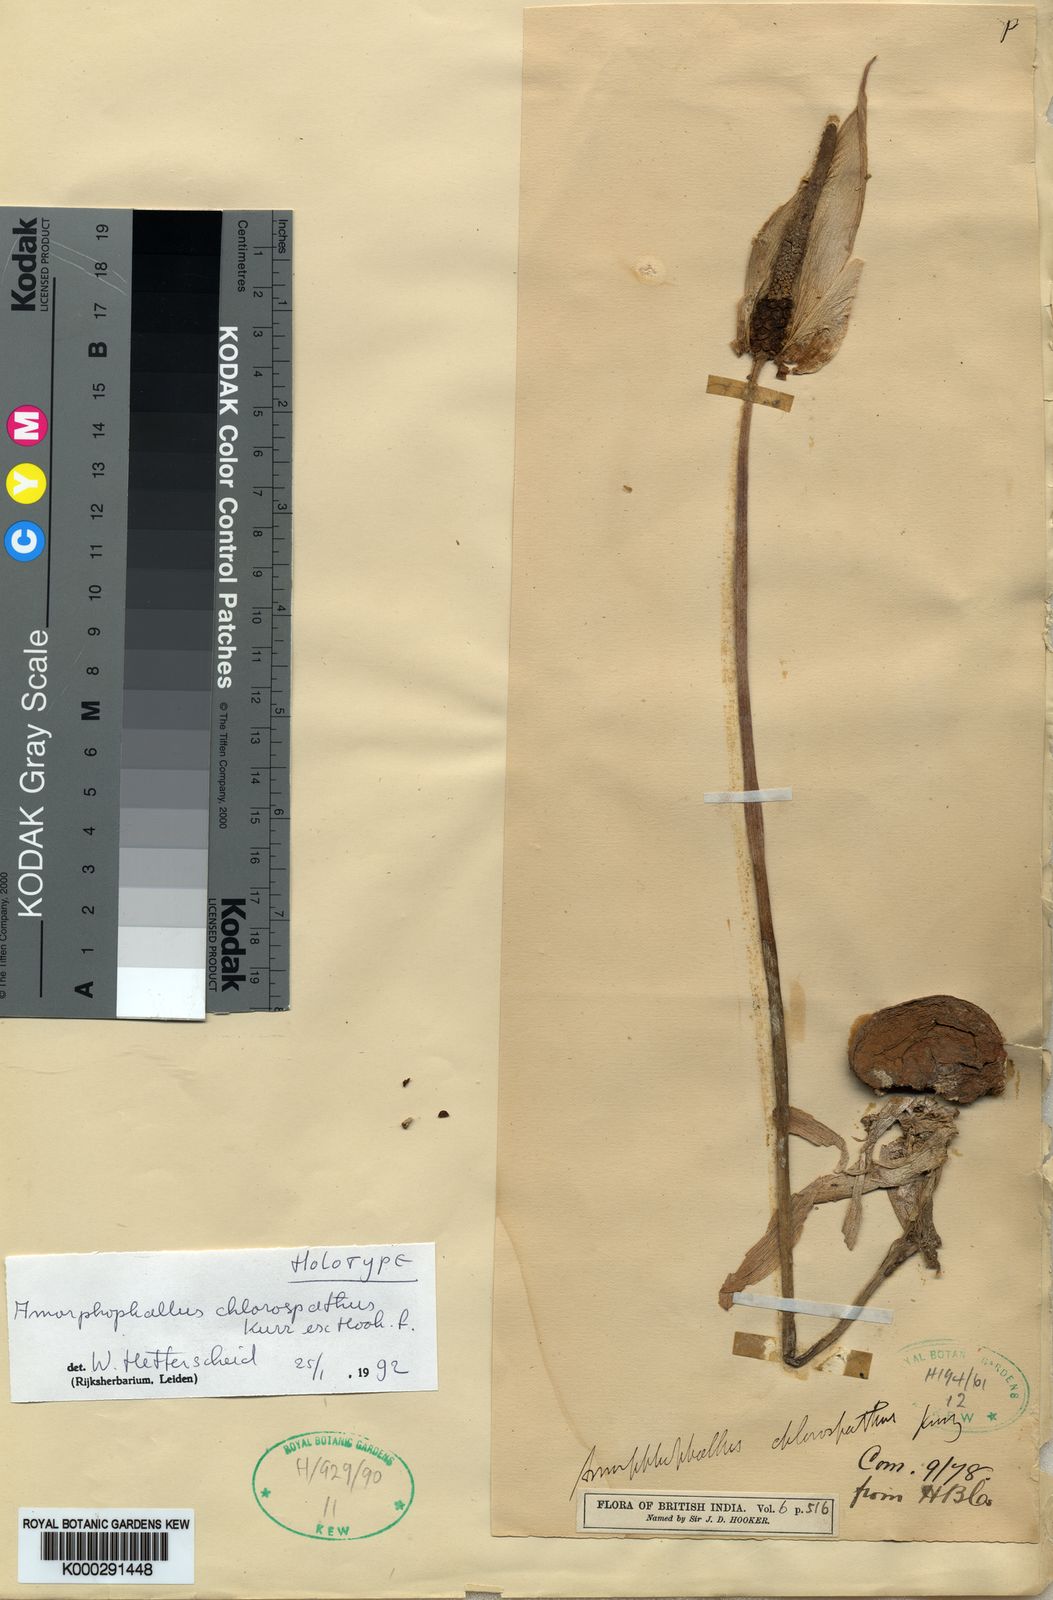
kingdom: Plantae
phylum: Tracheophyta
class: Liliopsida
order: Alismatales
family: Araceae
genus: Amorphophallus
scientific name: Amorphophallus chlorospathus
